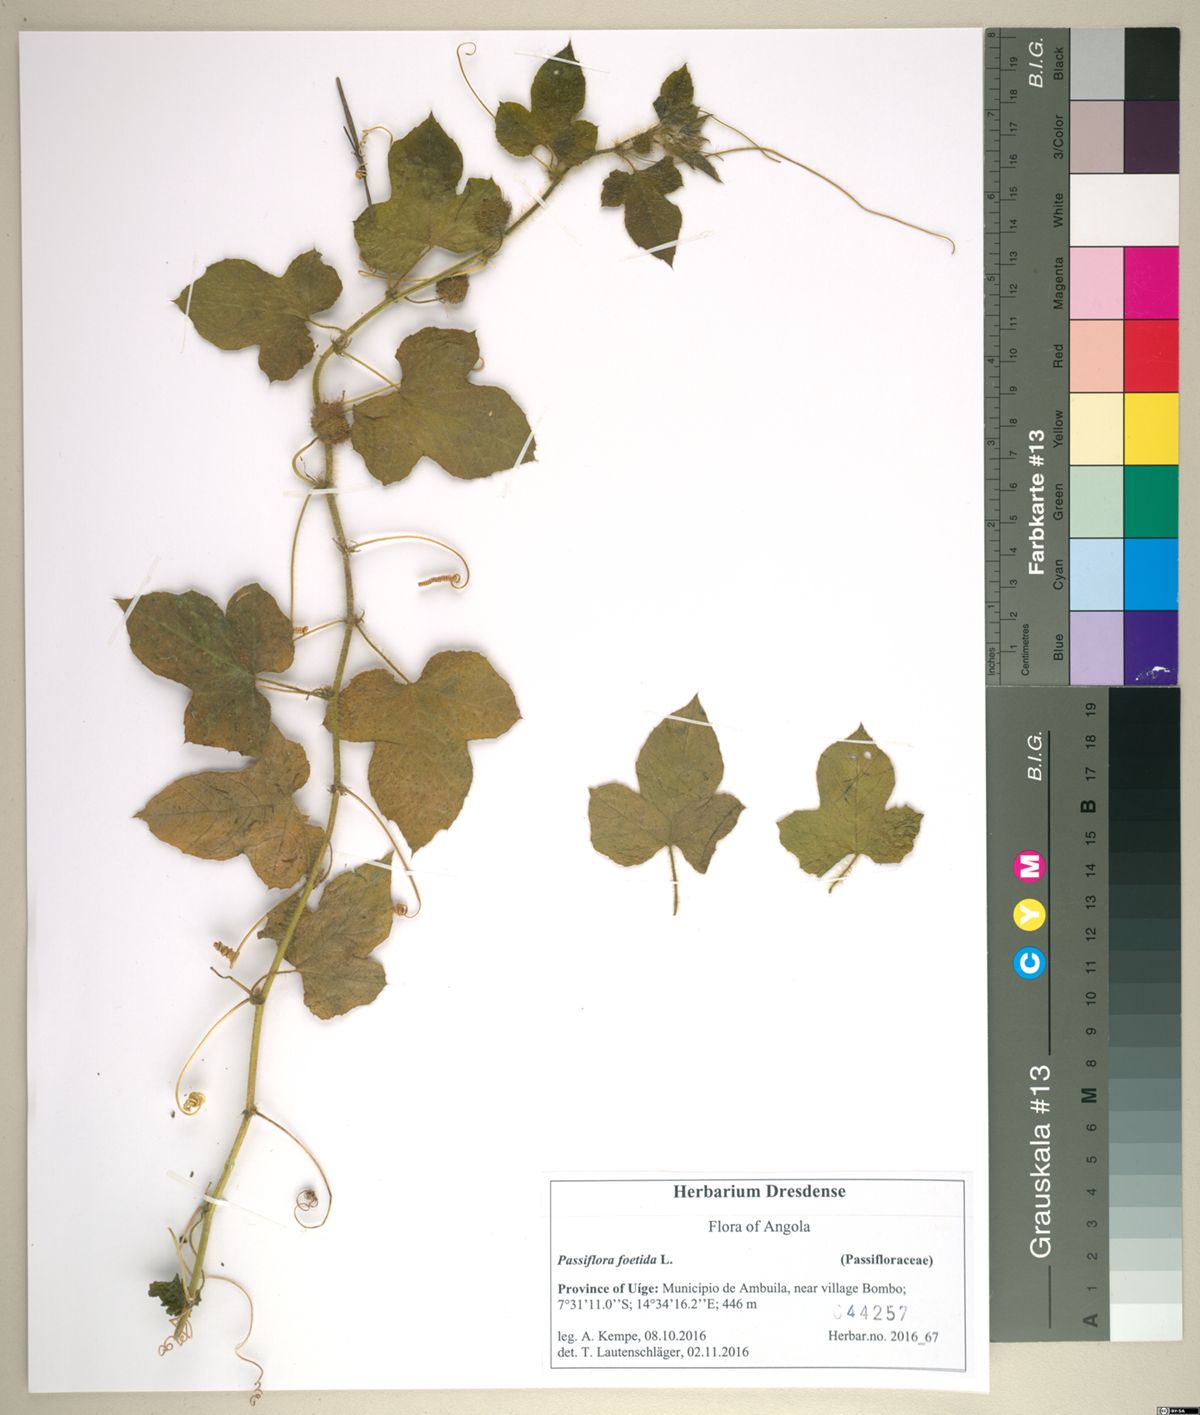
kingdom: Plantae
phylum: Tracheophyta
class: Magnoliopsida
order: Malpighiales
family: Passifloraceae
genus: Passiflora
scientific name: Passiflora foetida
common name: Fetid passionflower
